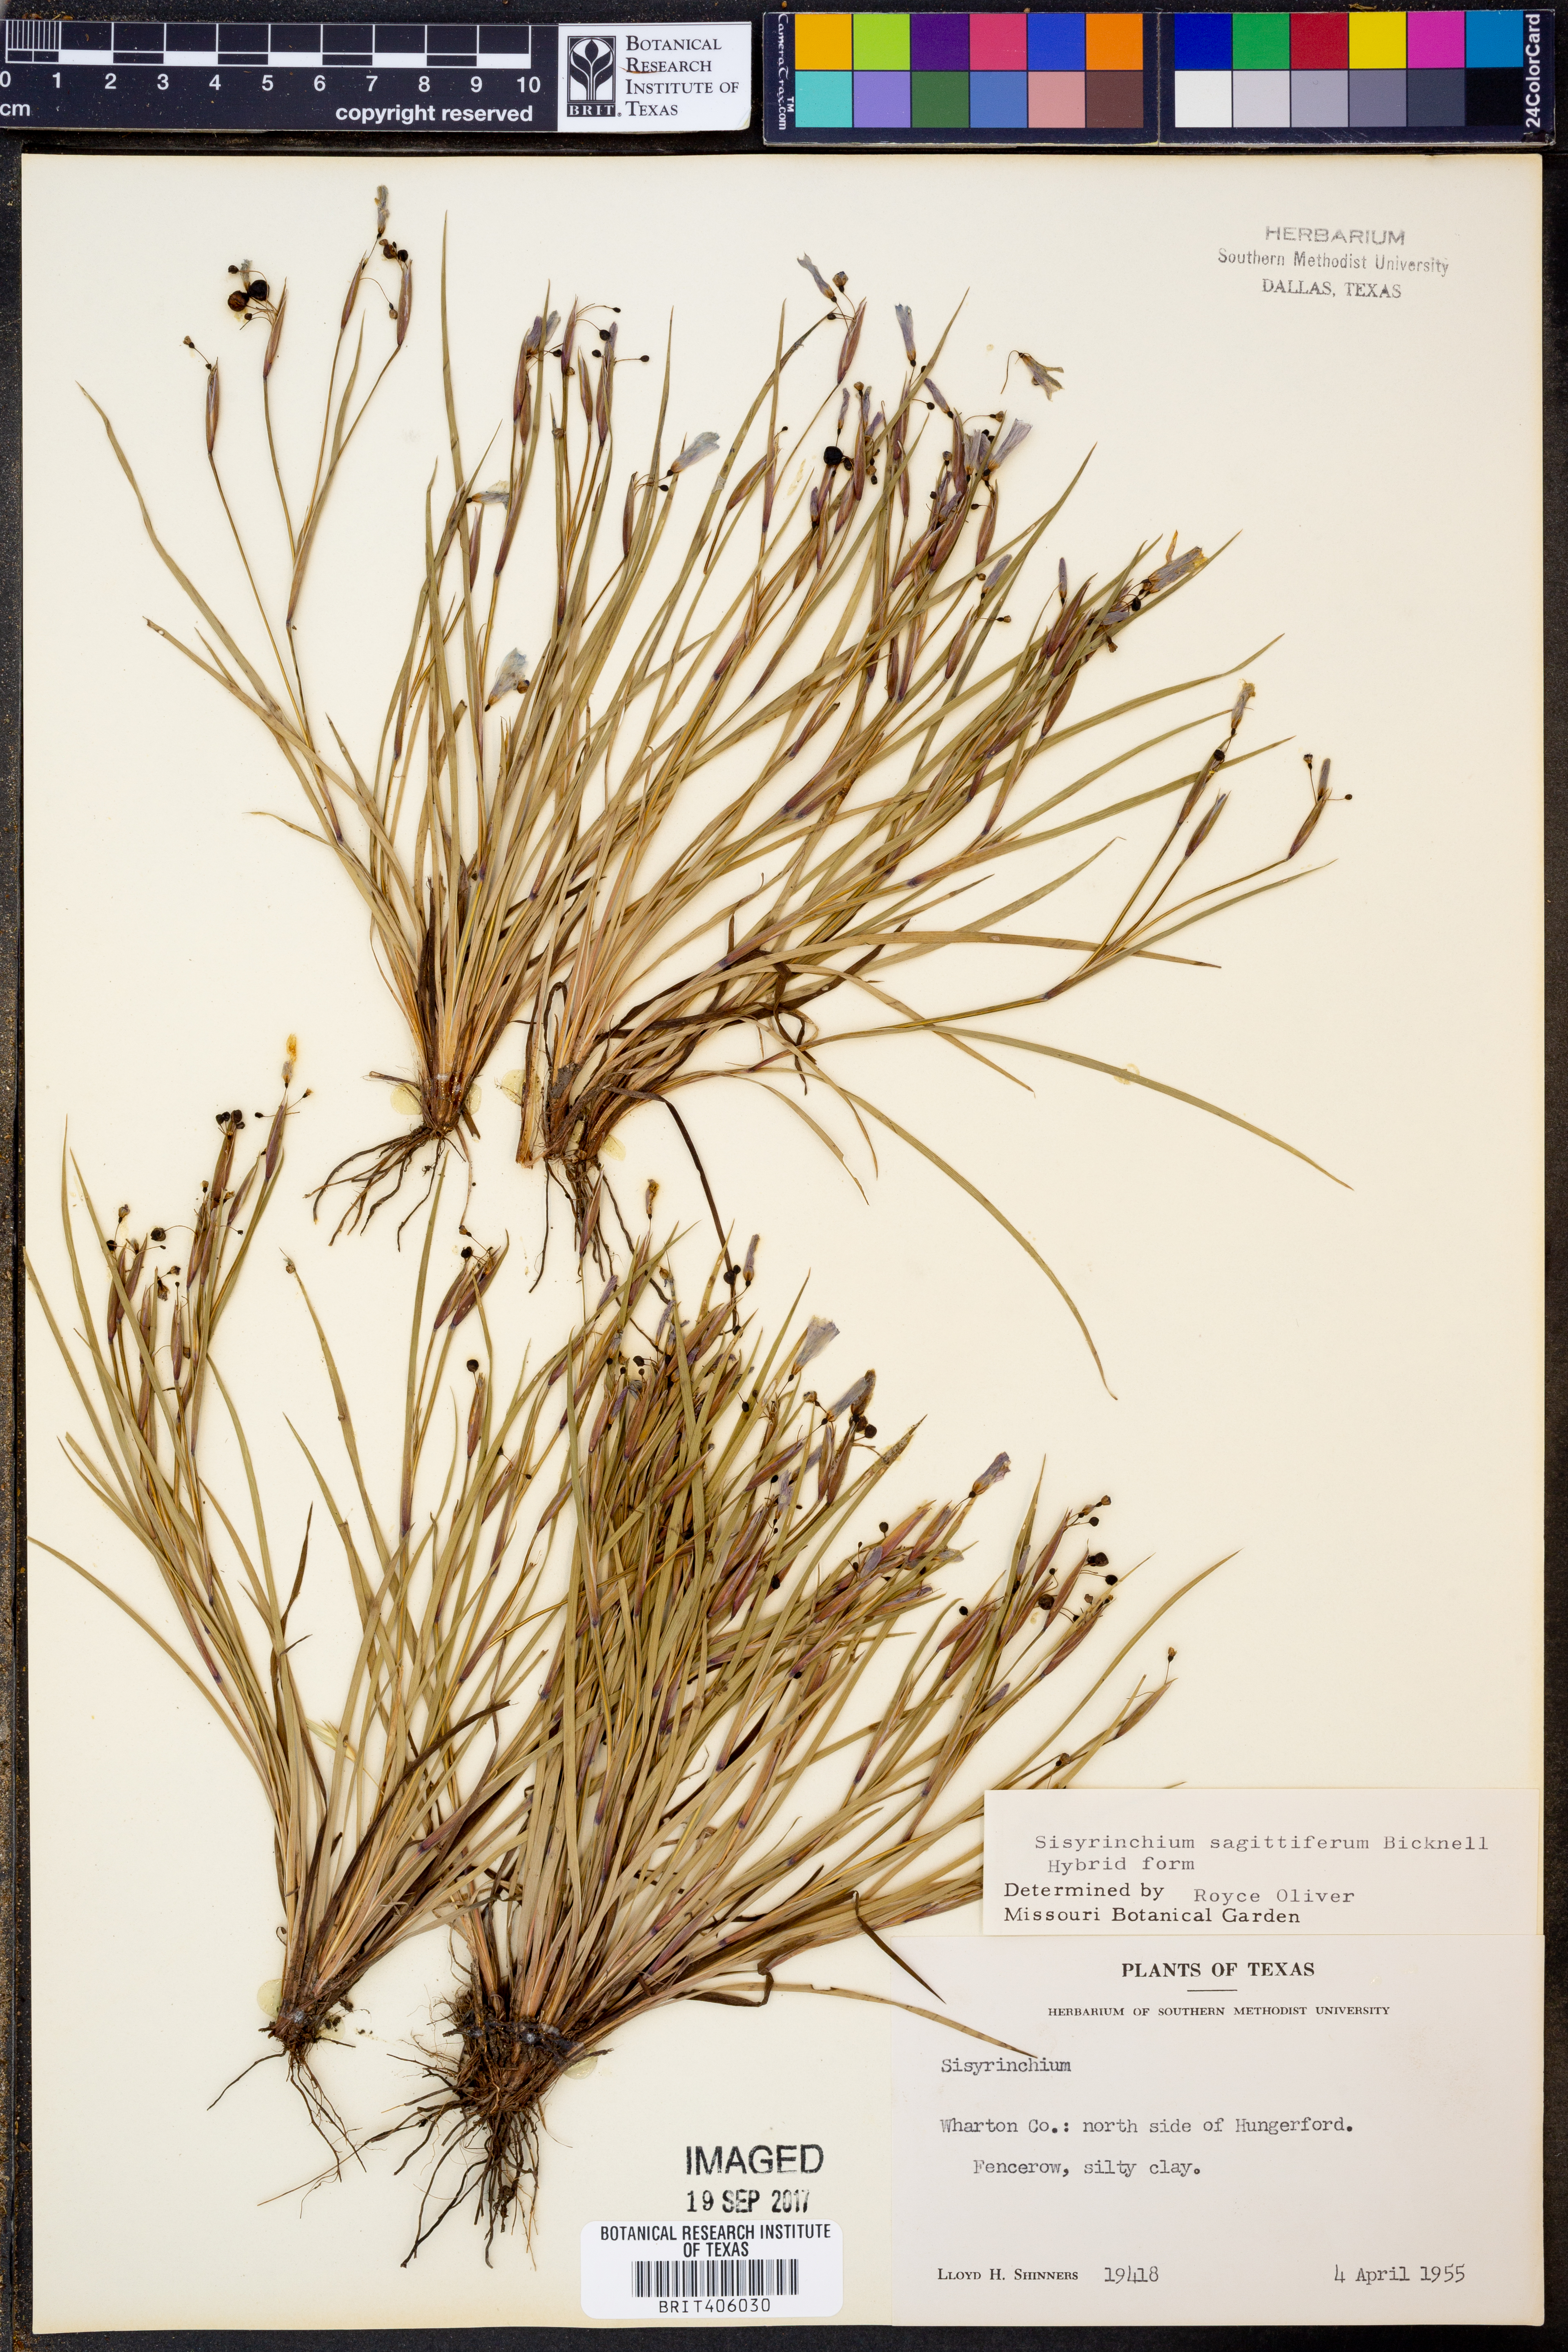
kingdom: Plantae
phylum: Tracheophyta
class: Liliopsida
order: Asparagales
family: Iridaceae
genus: Sisyrinchium
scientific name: Sisyrinchium sagittiferum
